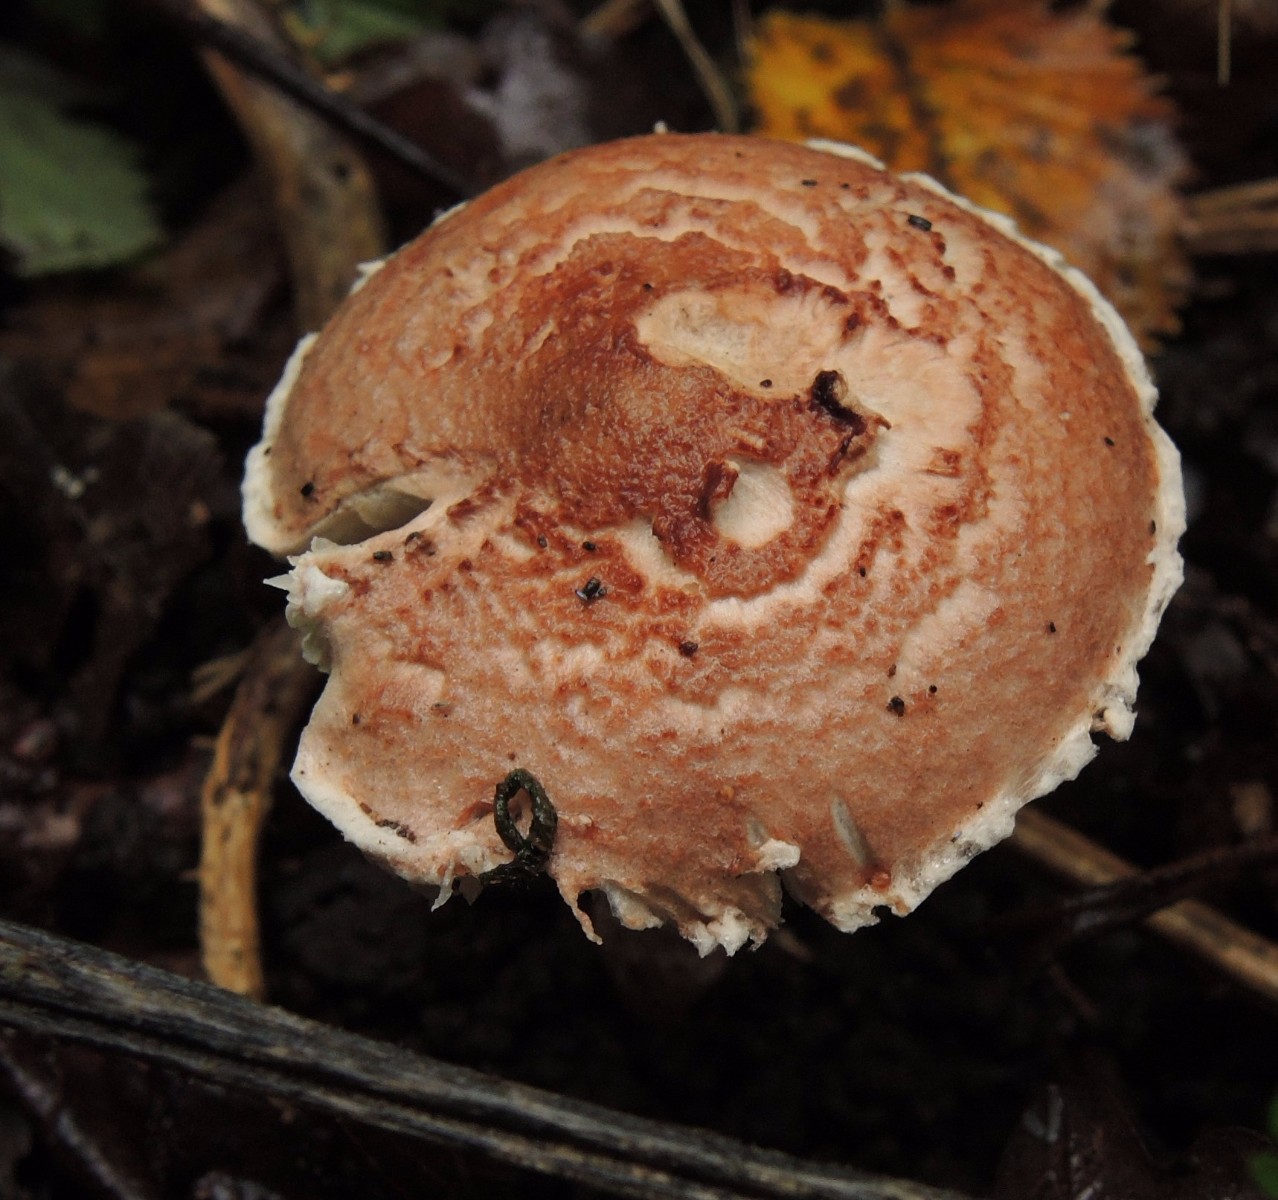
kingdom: Fungi
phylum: Basidiomycota
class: Agaricomycetes
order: Agaricales
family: Agaricaceae
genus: Lepiota
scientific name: Lepiota subincarnata
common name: kødfarvet parasolhat
